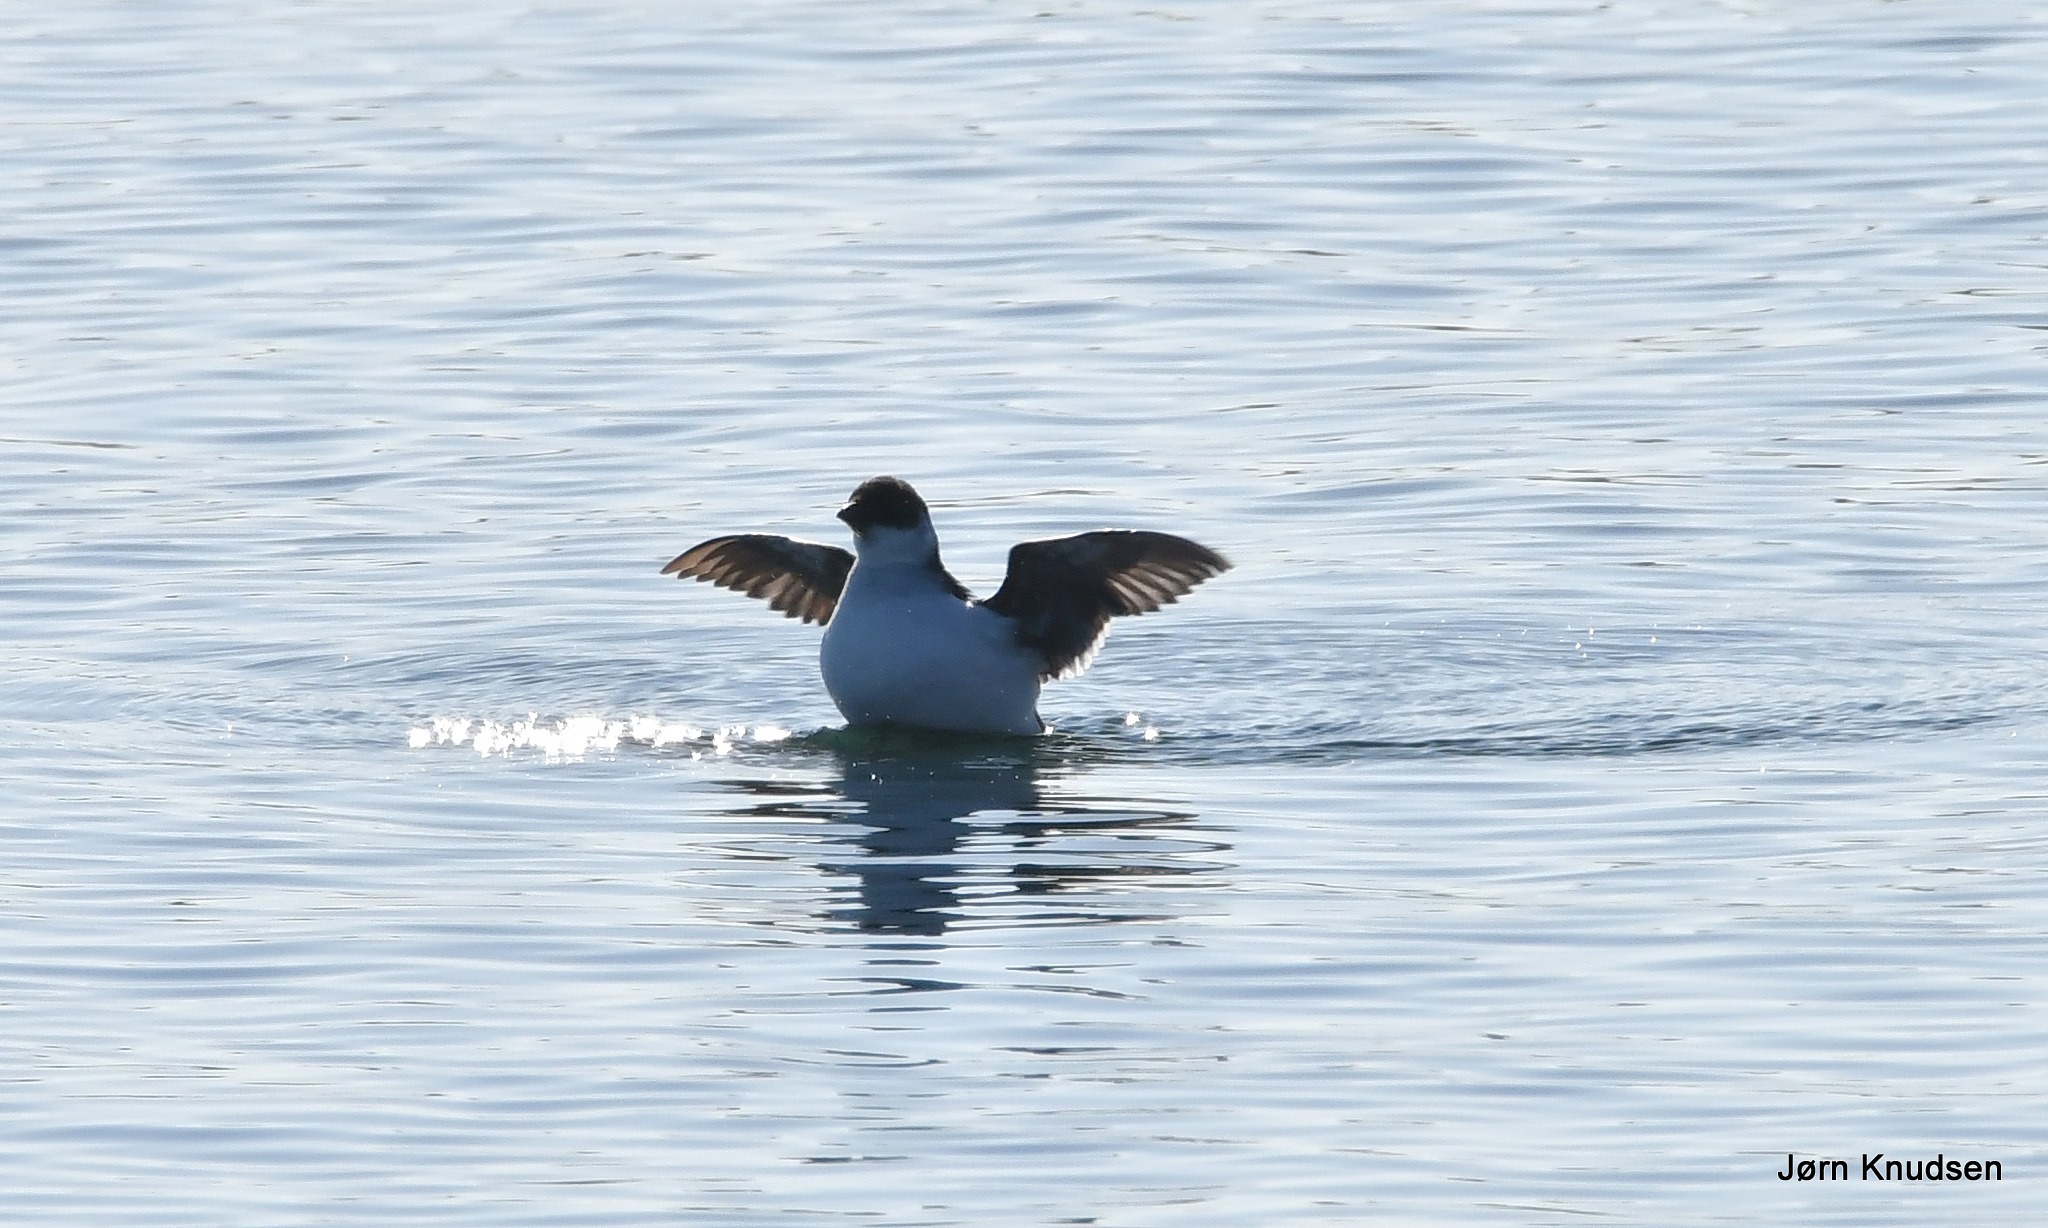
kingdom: Animalia
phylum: Chordata
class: Aves
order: Charadriiformes
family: Alcidae
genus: Alle
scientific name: Alle alle
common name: Søkonge
